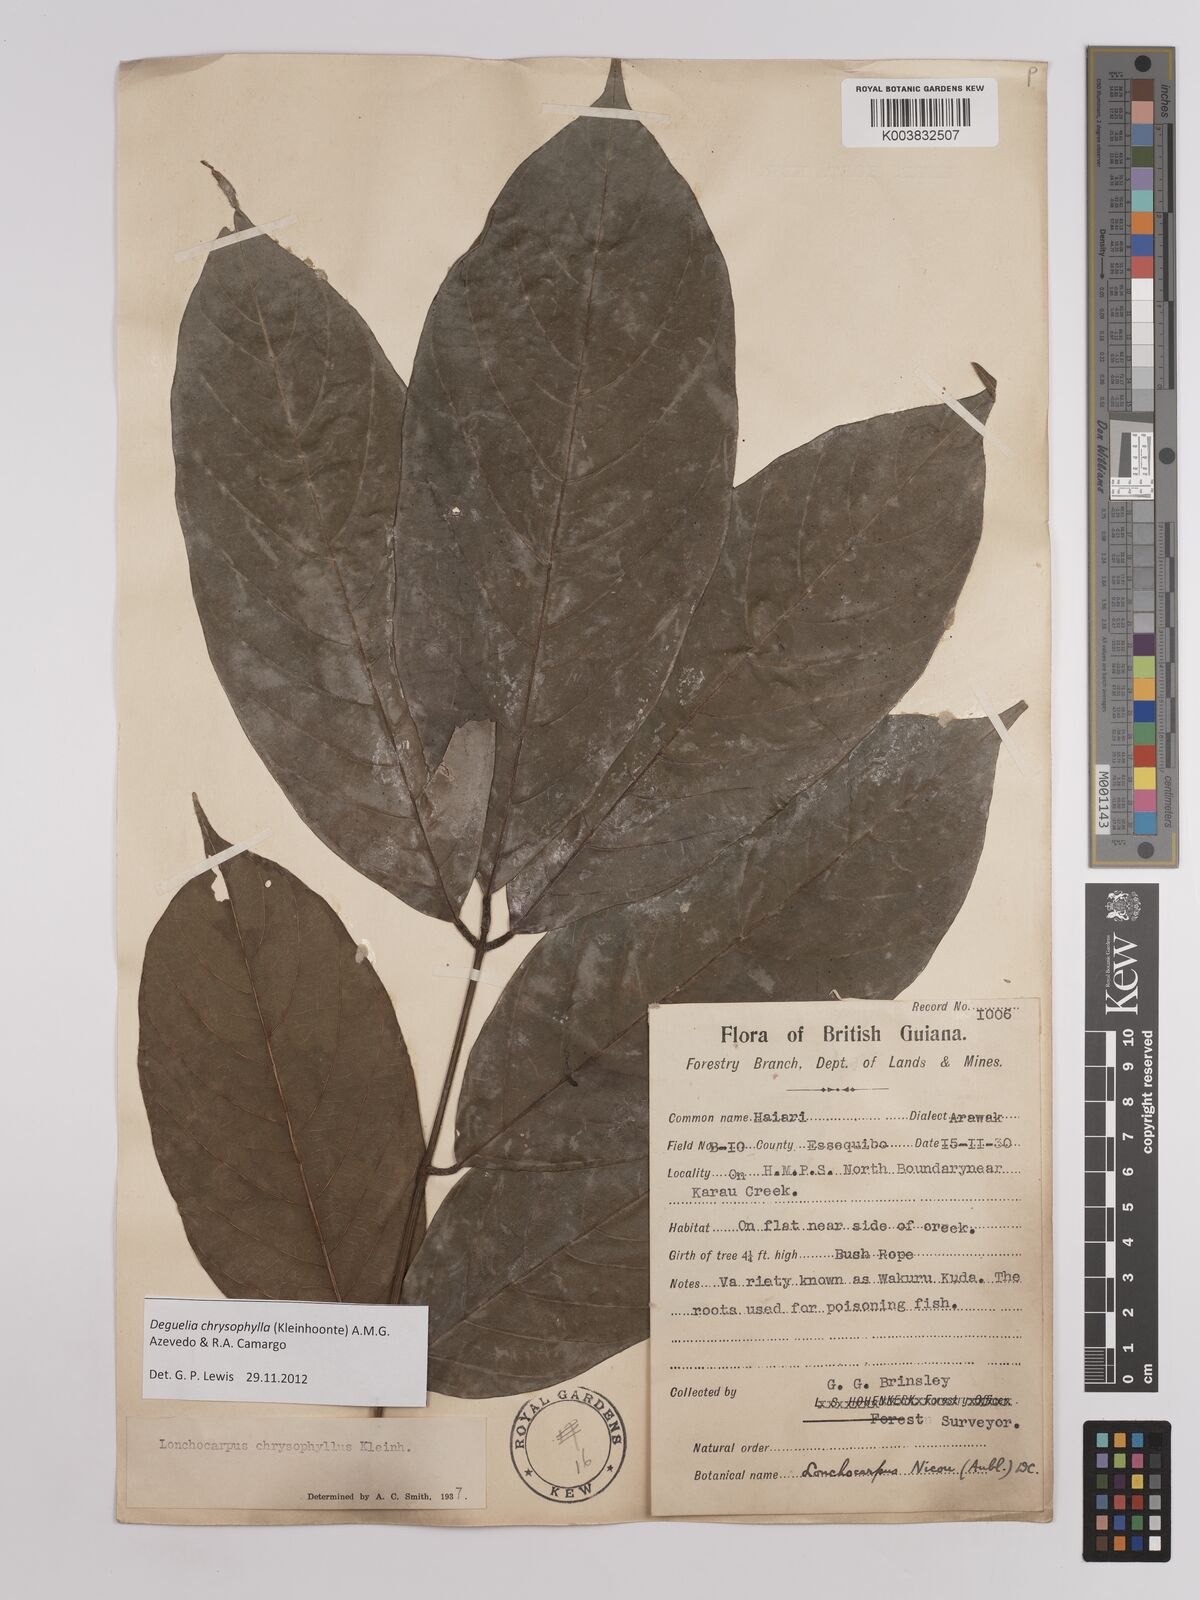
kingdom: Plantae
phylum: Tracheophyta
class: Magnoliopsida
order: Fabales
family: Fabaceae
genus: Deguelia
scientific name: Deguelia chrysophylla
